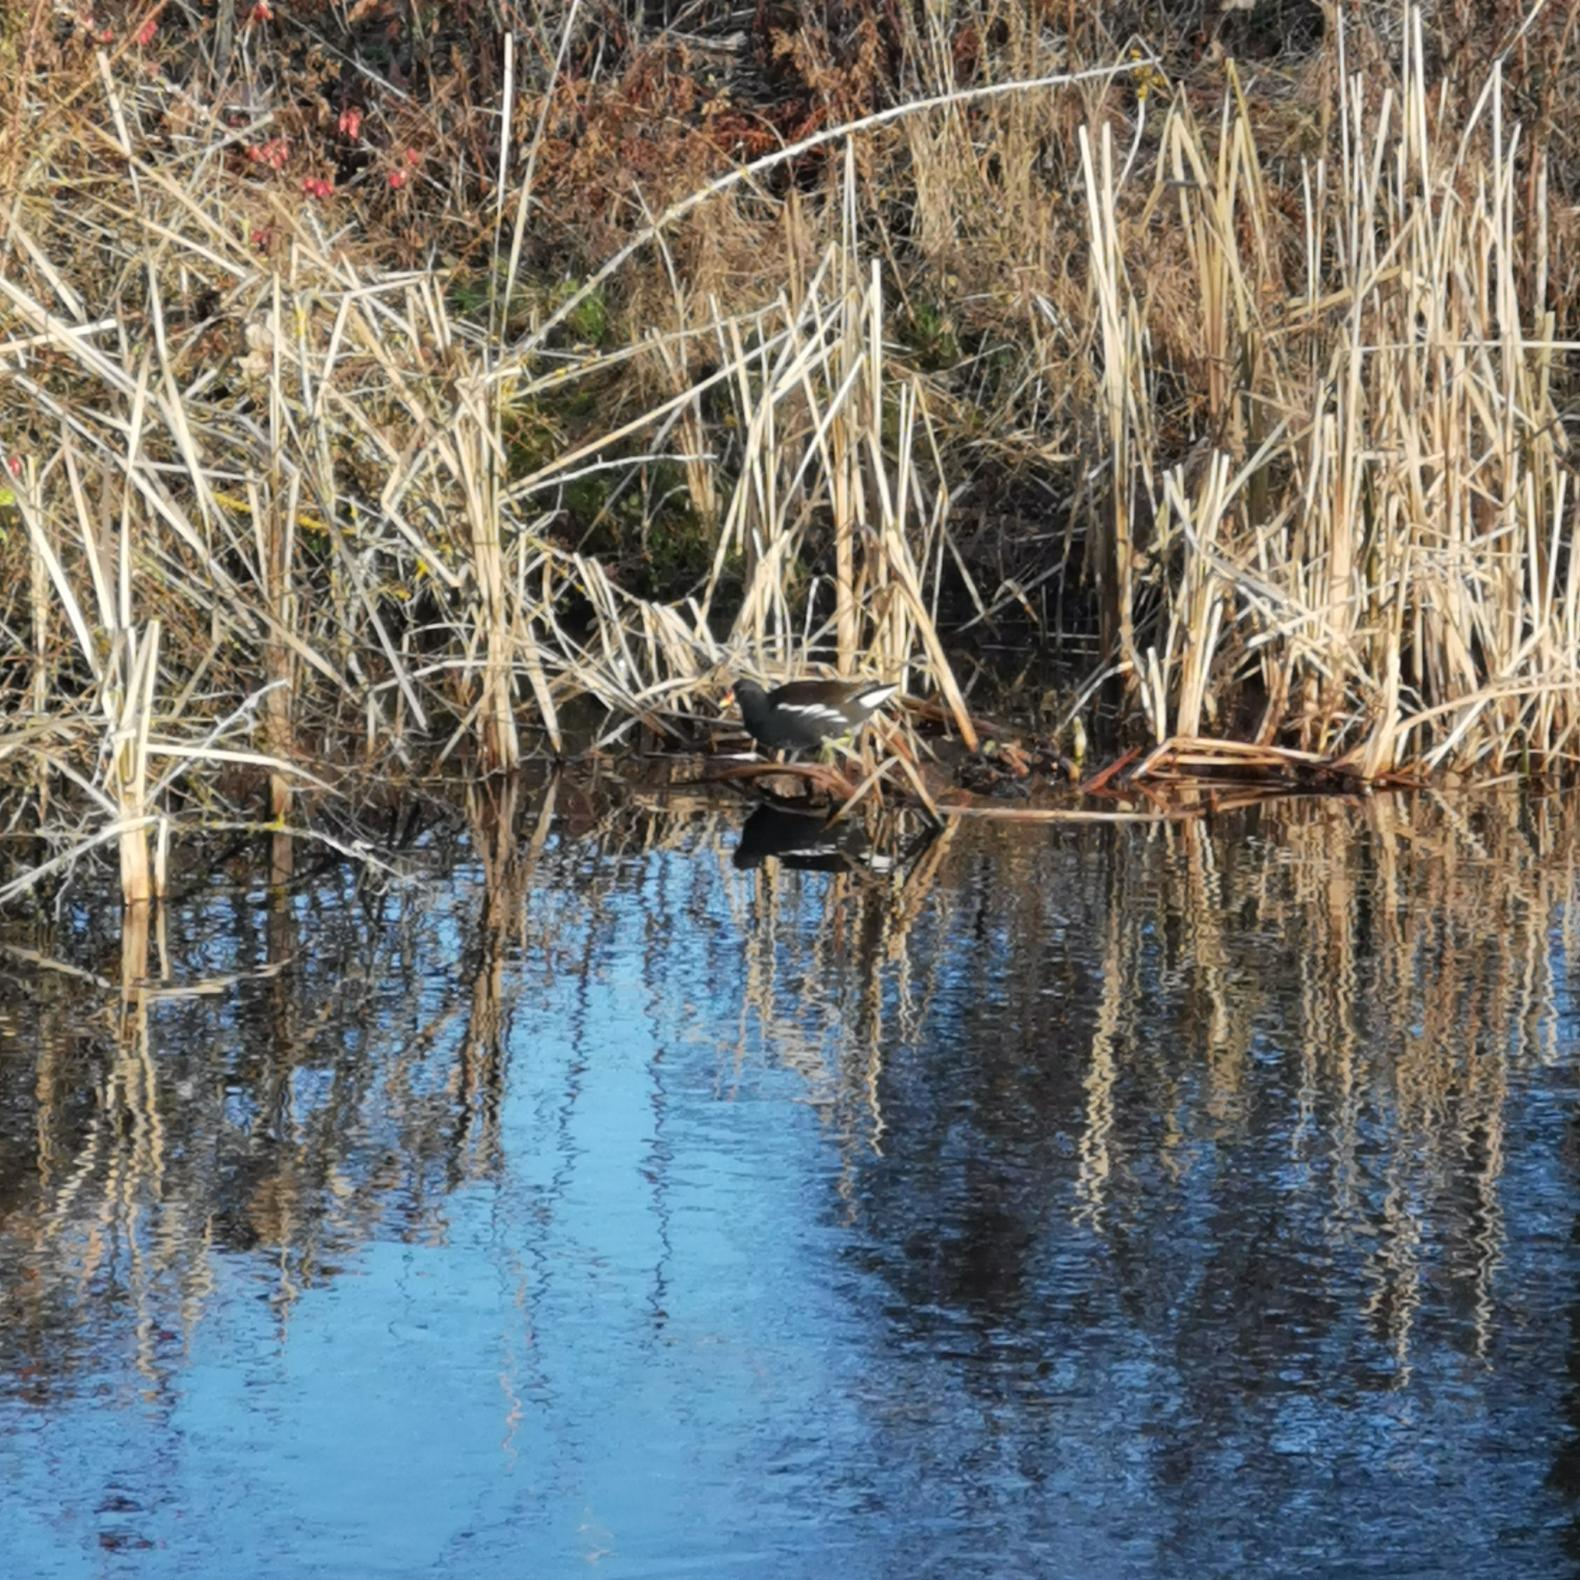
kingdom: Animalia
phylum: Chordata
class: Aves
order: Gruiformes
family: Rallidae
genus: Gallinula
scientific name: Gallinula chloropus
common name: Grønbenet rørhøne
